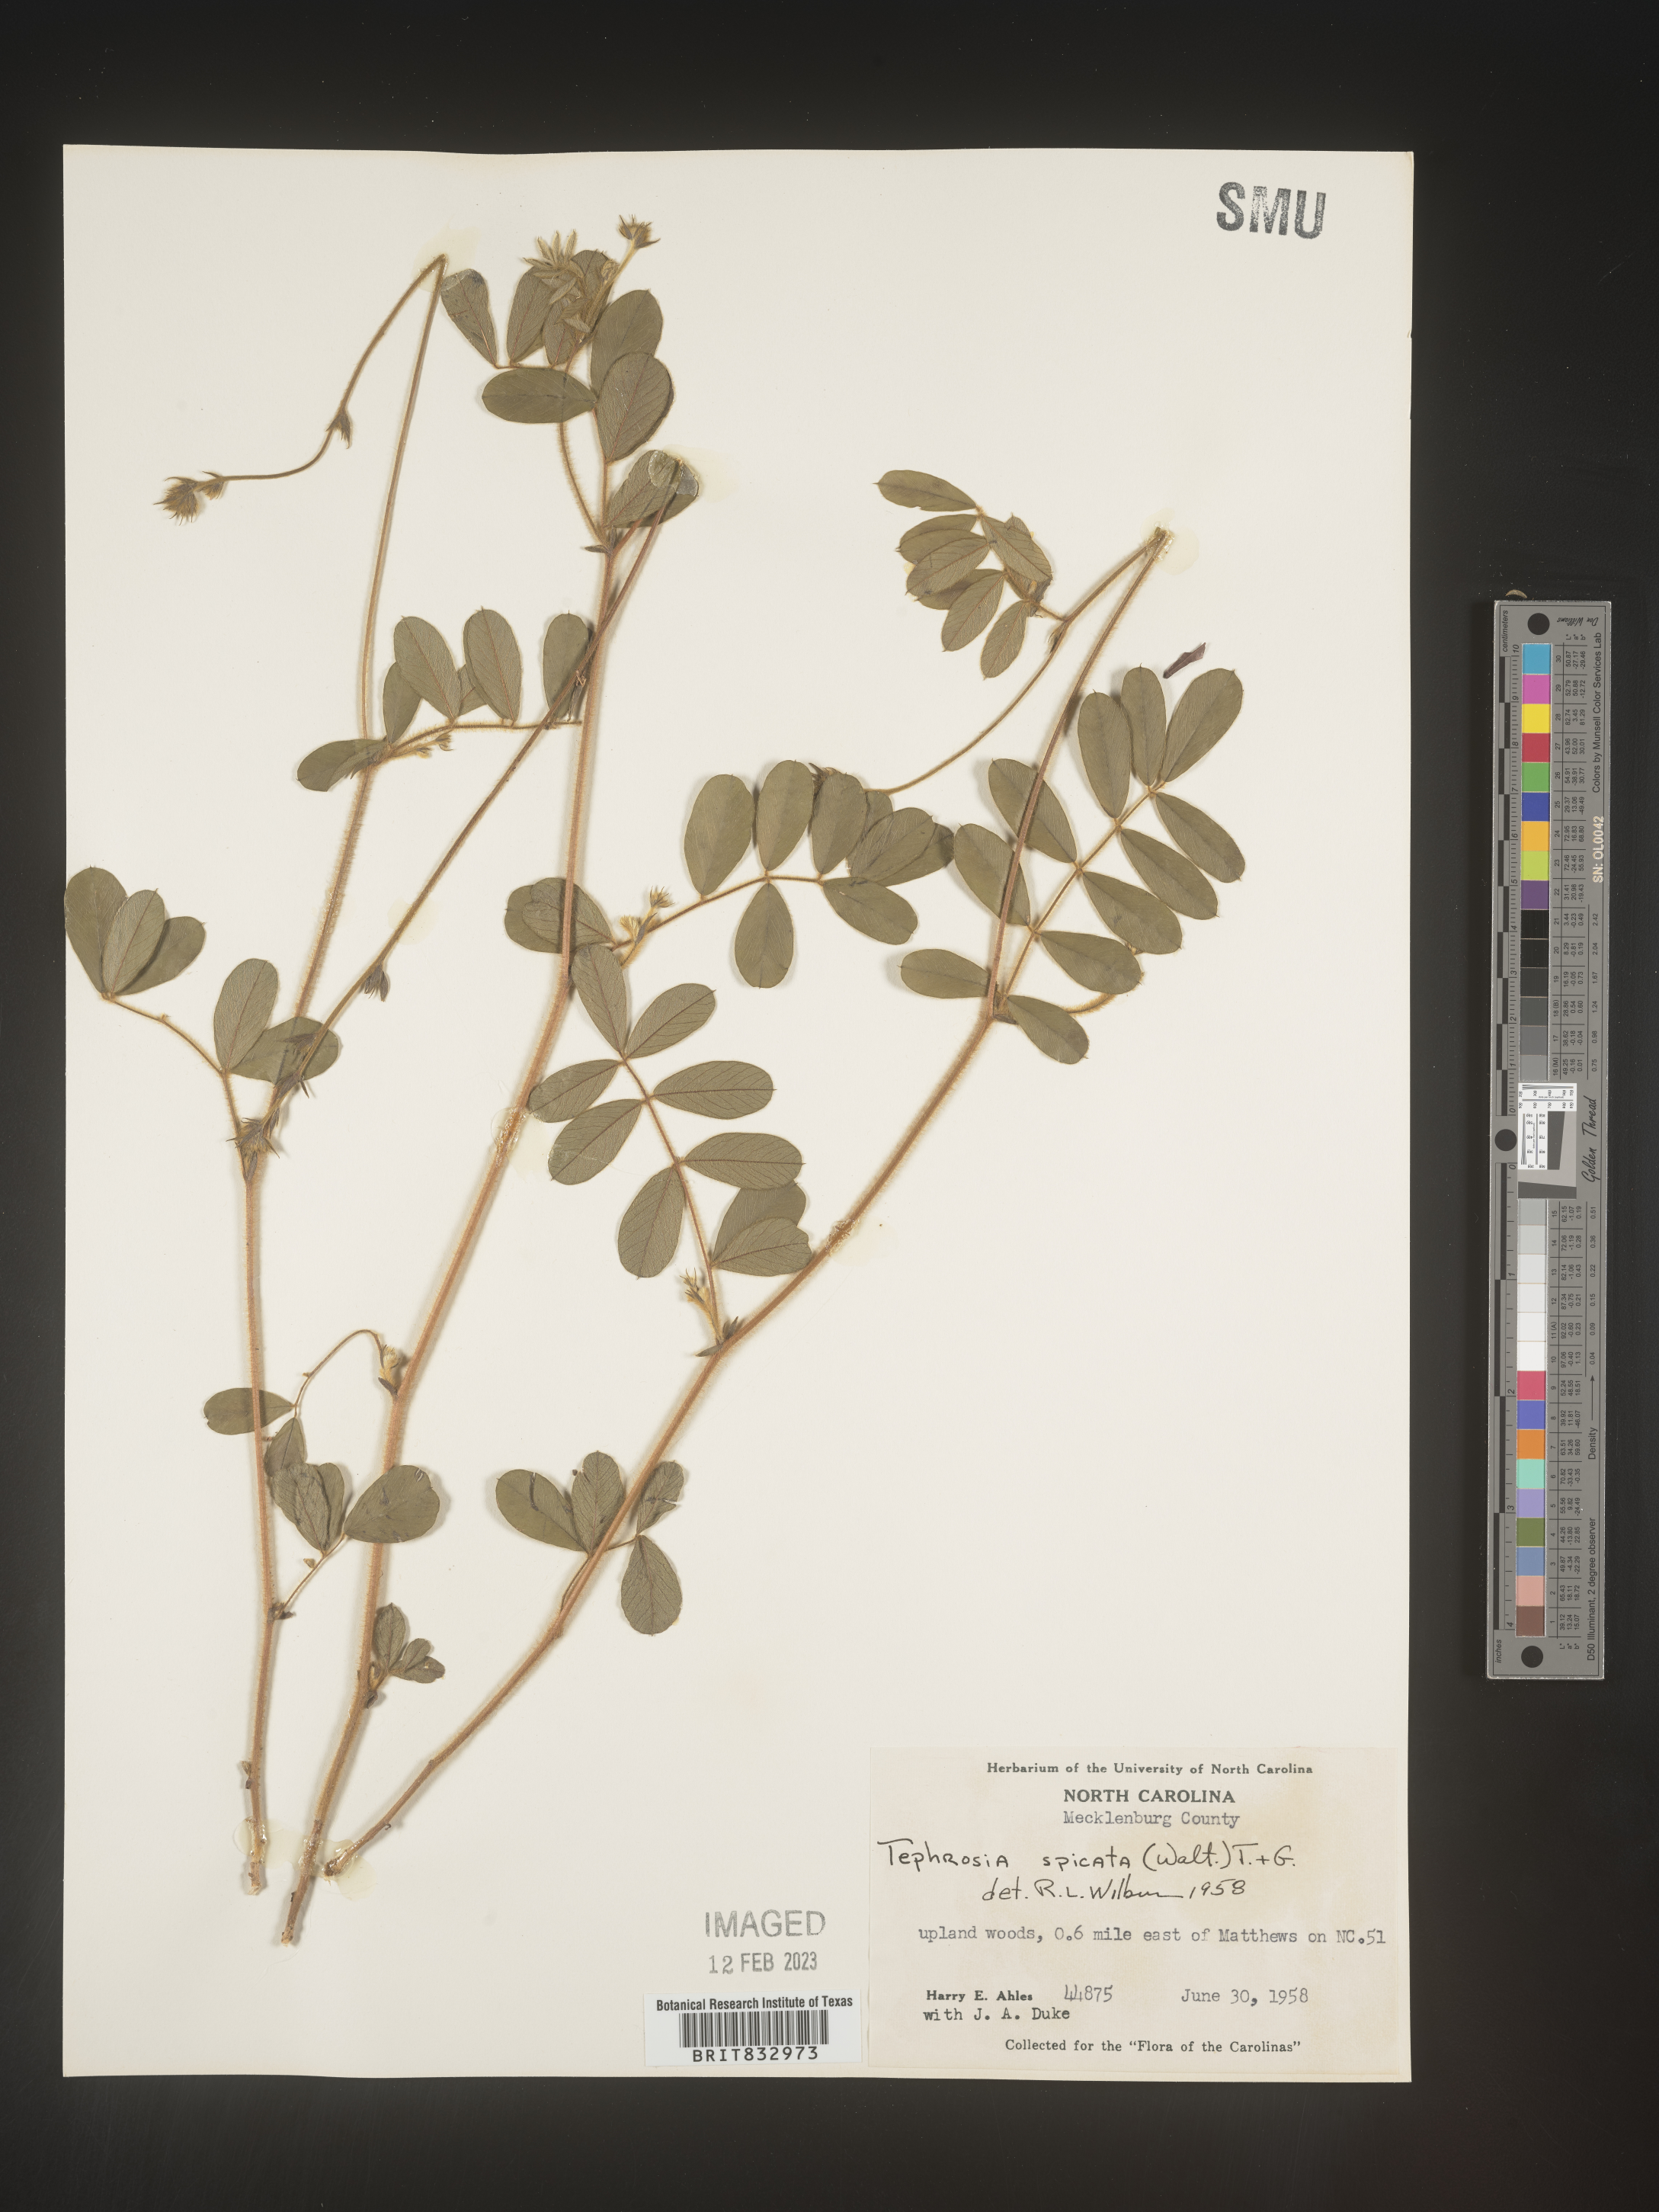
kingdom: Plantae
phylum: Tracheophyta
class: Magnoliopsida
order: Fabales
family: Fabaceae
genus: Tephrosia
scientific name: Tephrosia spicata
